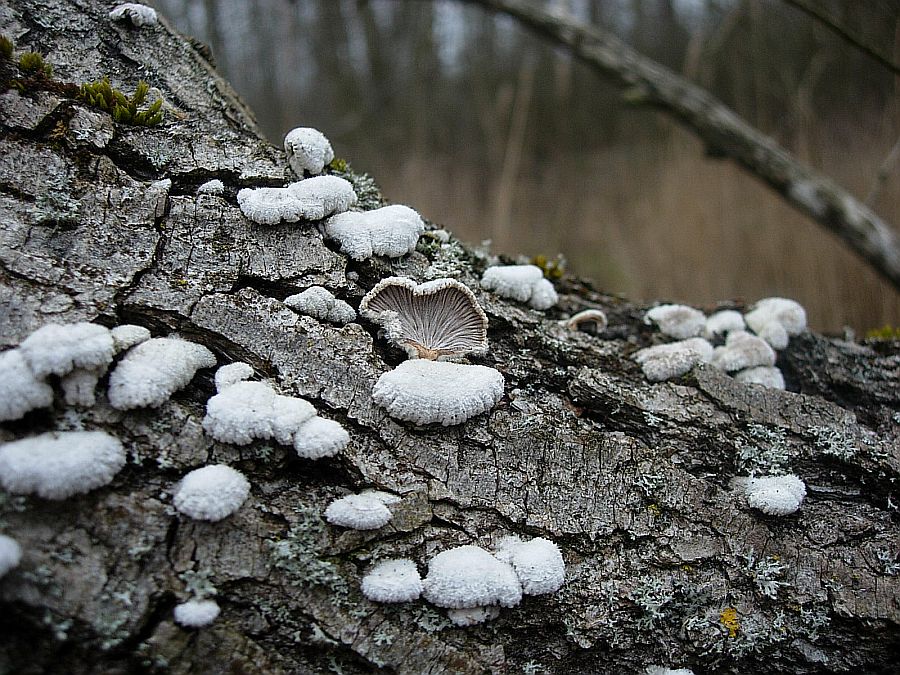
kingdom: Fungi
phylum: Basidiomycota
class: Agaricomycetes
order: Agaricales
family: Schizophyllaceae
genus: Schizophyllum
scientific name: Schizophyllum commune
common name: kløvblad
